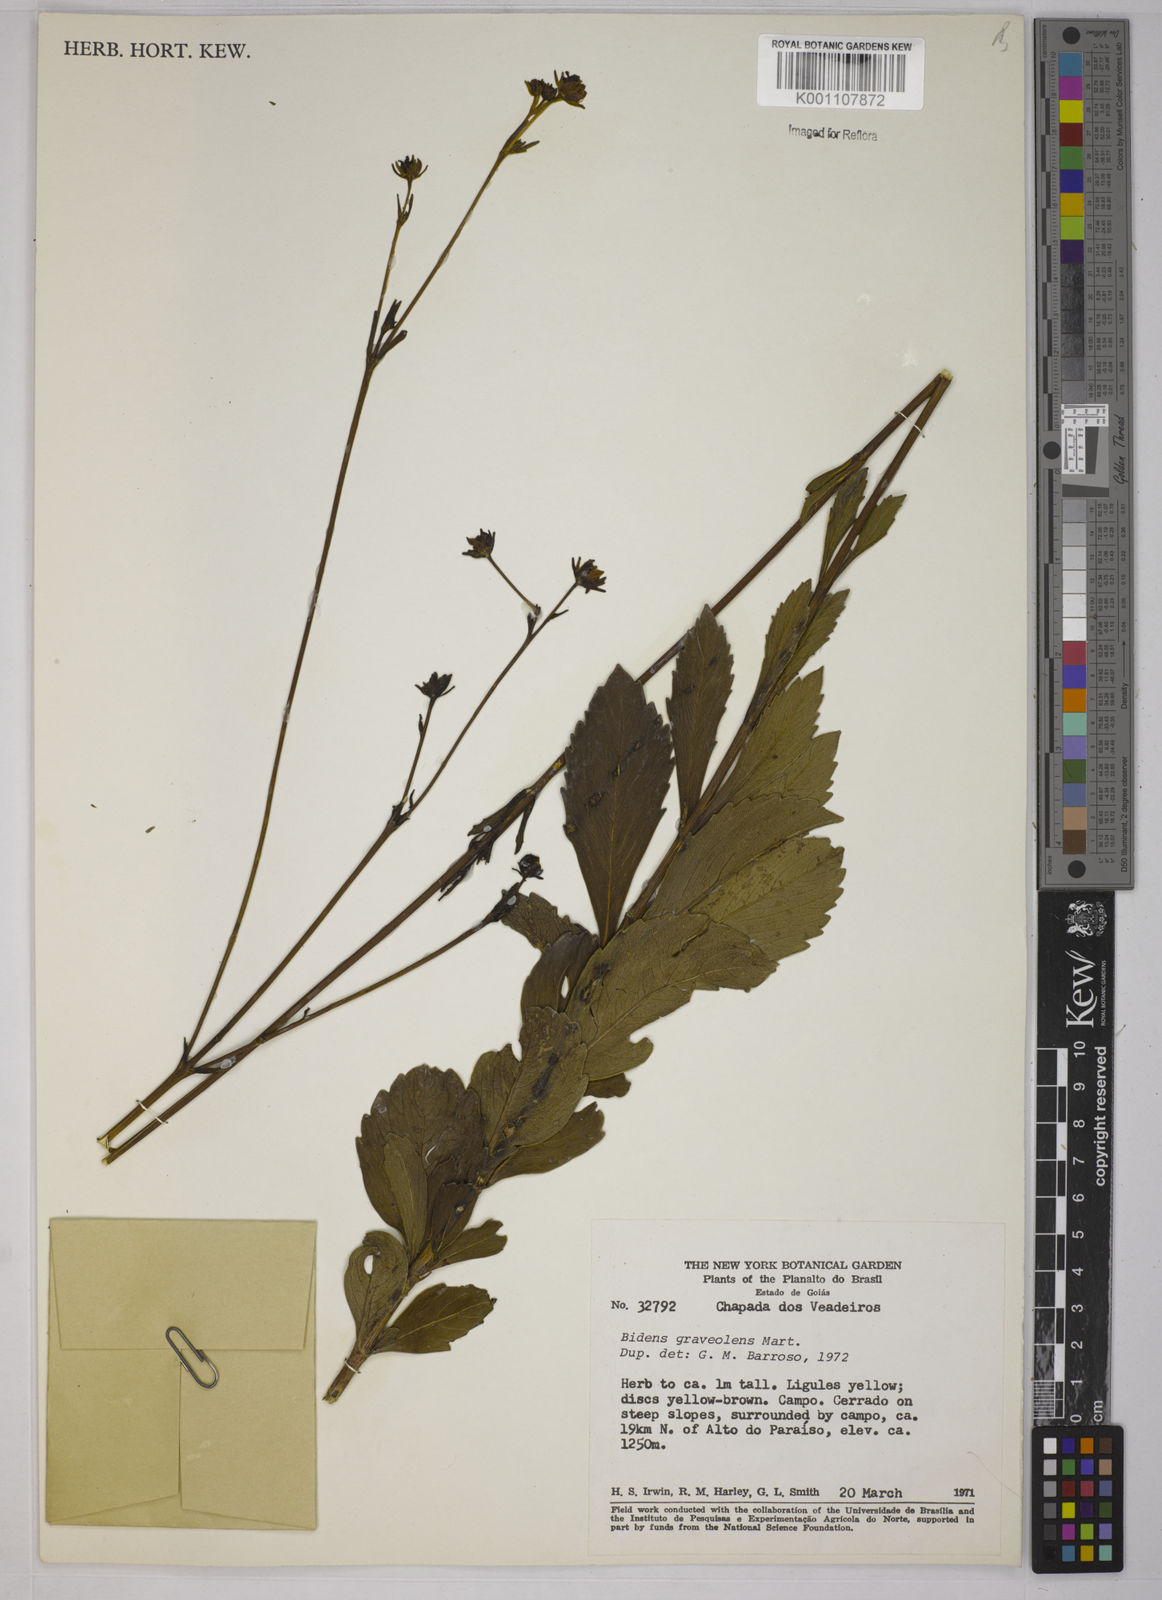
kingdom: Plantae
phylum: Tracheophyta
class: Magnoliopsida
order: Asterales
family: Asteraceae
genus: Bidens
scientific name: Bidens
